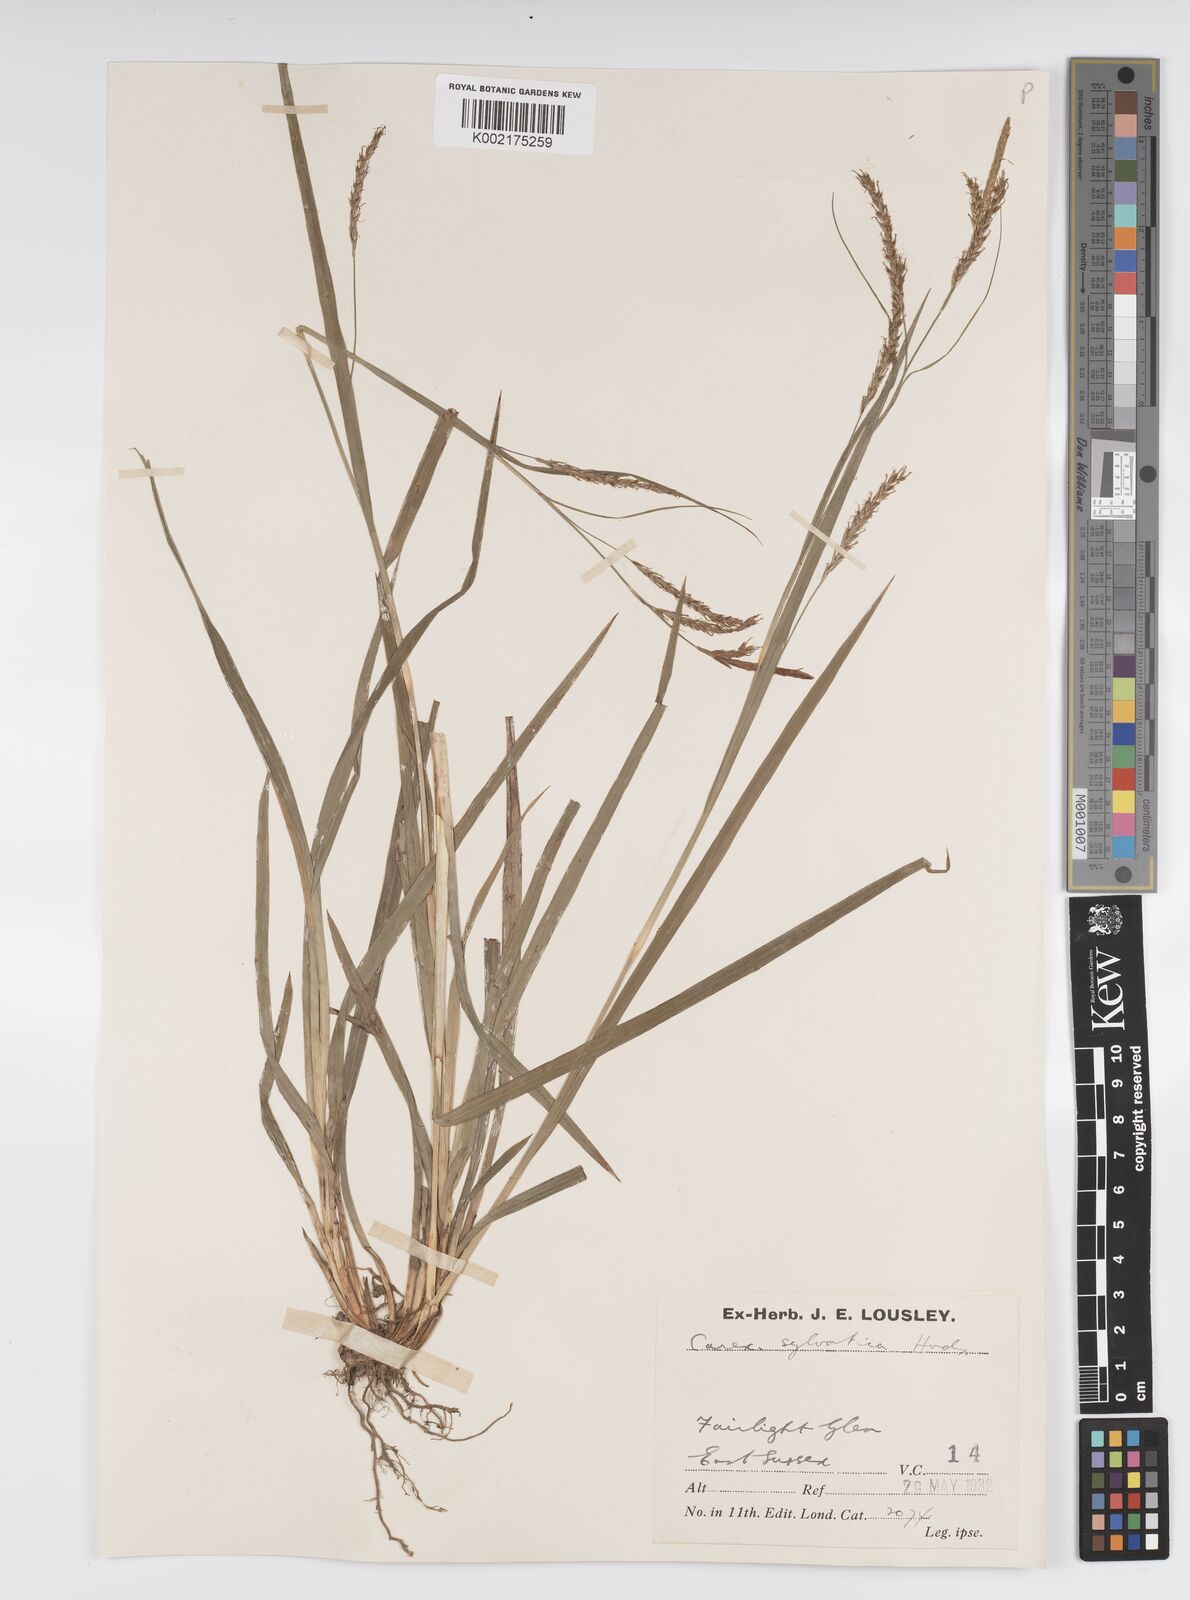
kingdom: Plantae
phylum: Tracheophyta
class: Liliopsida
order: Poales
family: Cyperaceae
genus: Carex
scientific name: Carex sylvatica
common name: Wood-sedge
